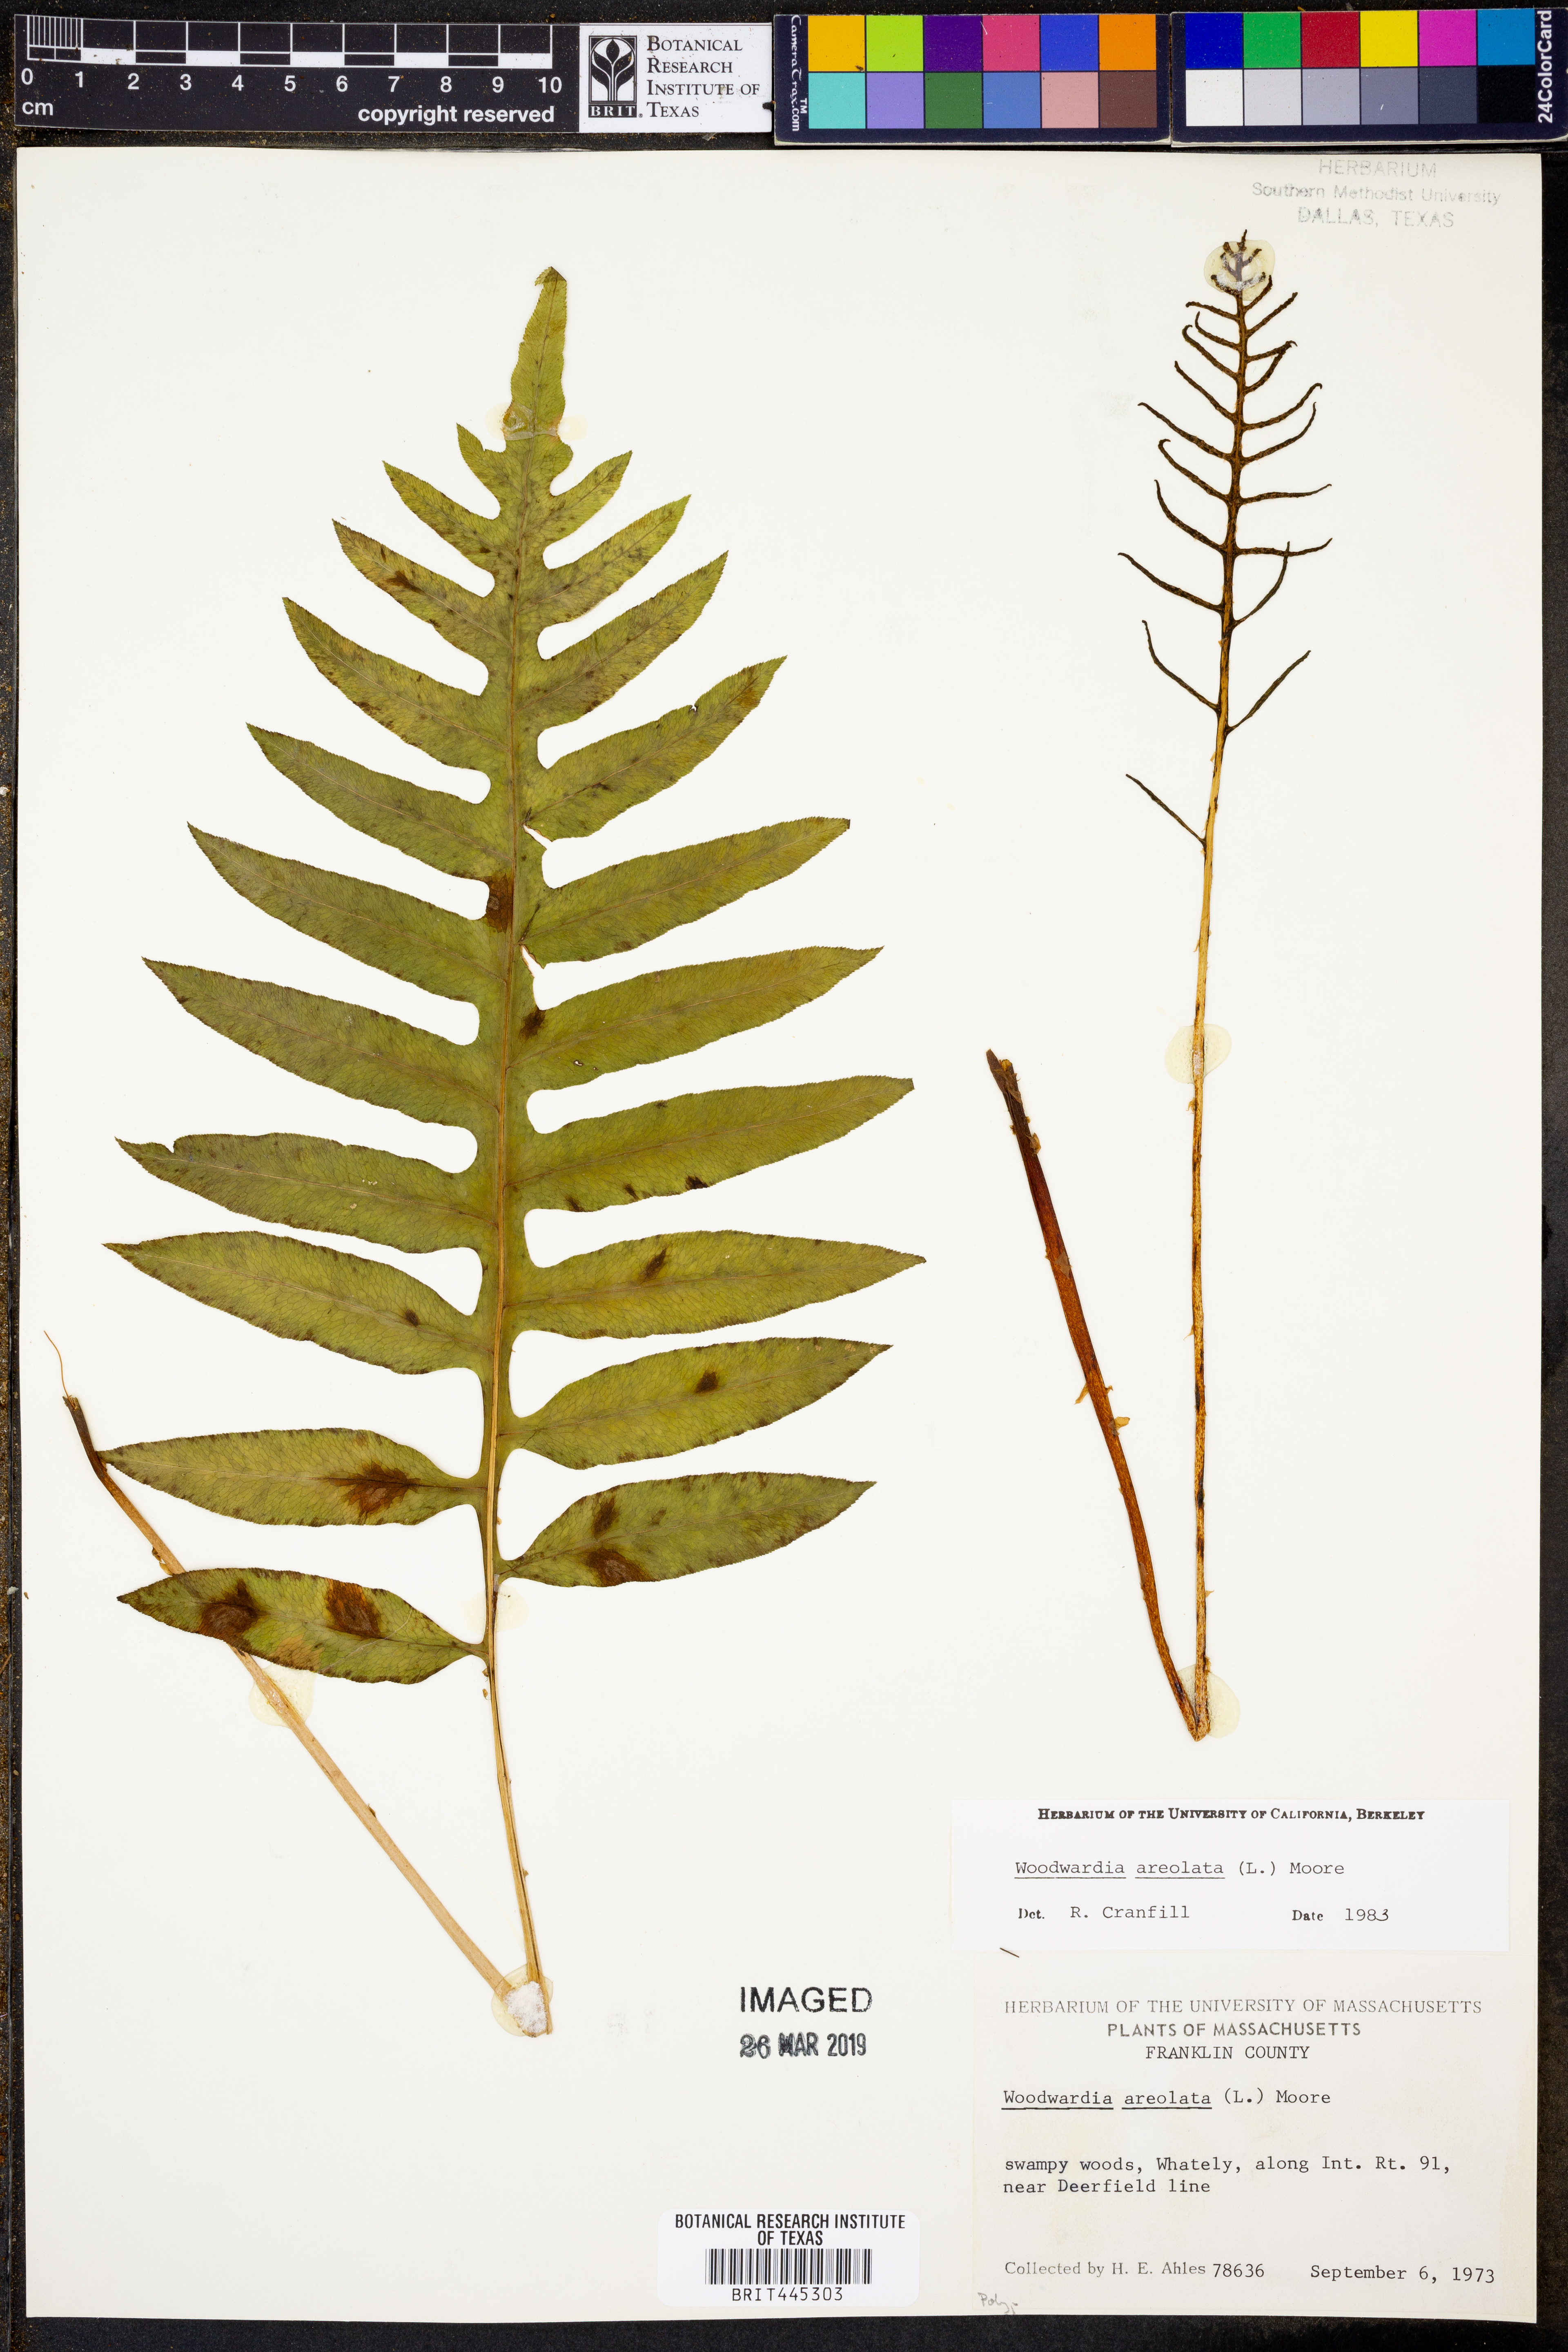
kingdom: Plantae
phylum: Tracheophyta
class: Polypodiopsida
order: Polypodiales
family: Blechnaceae
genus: Lorinseria
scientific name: Lorinseria areolata
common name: Dwarf chain fern
